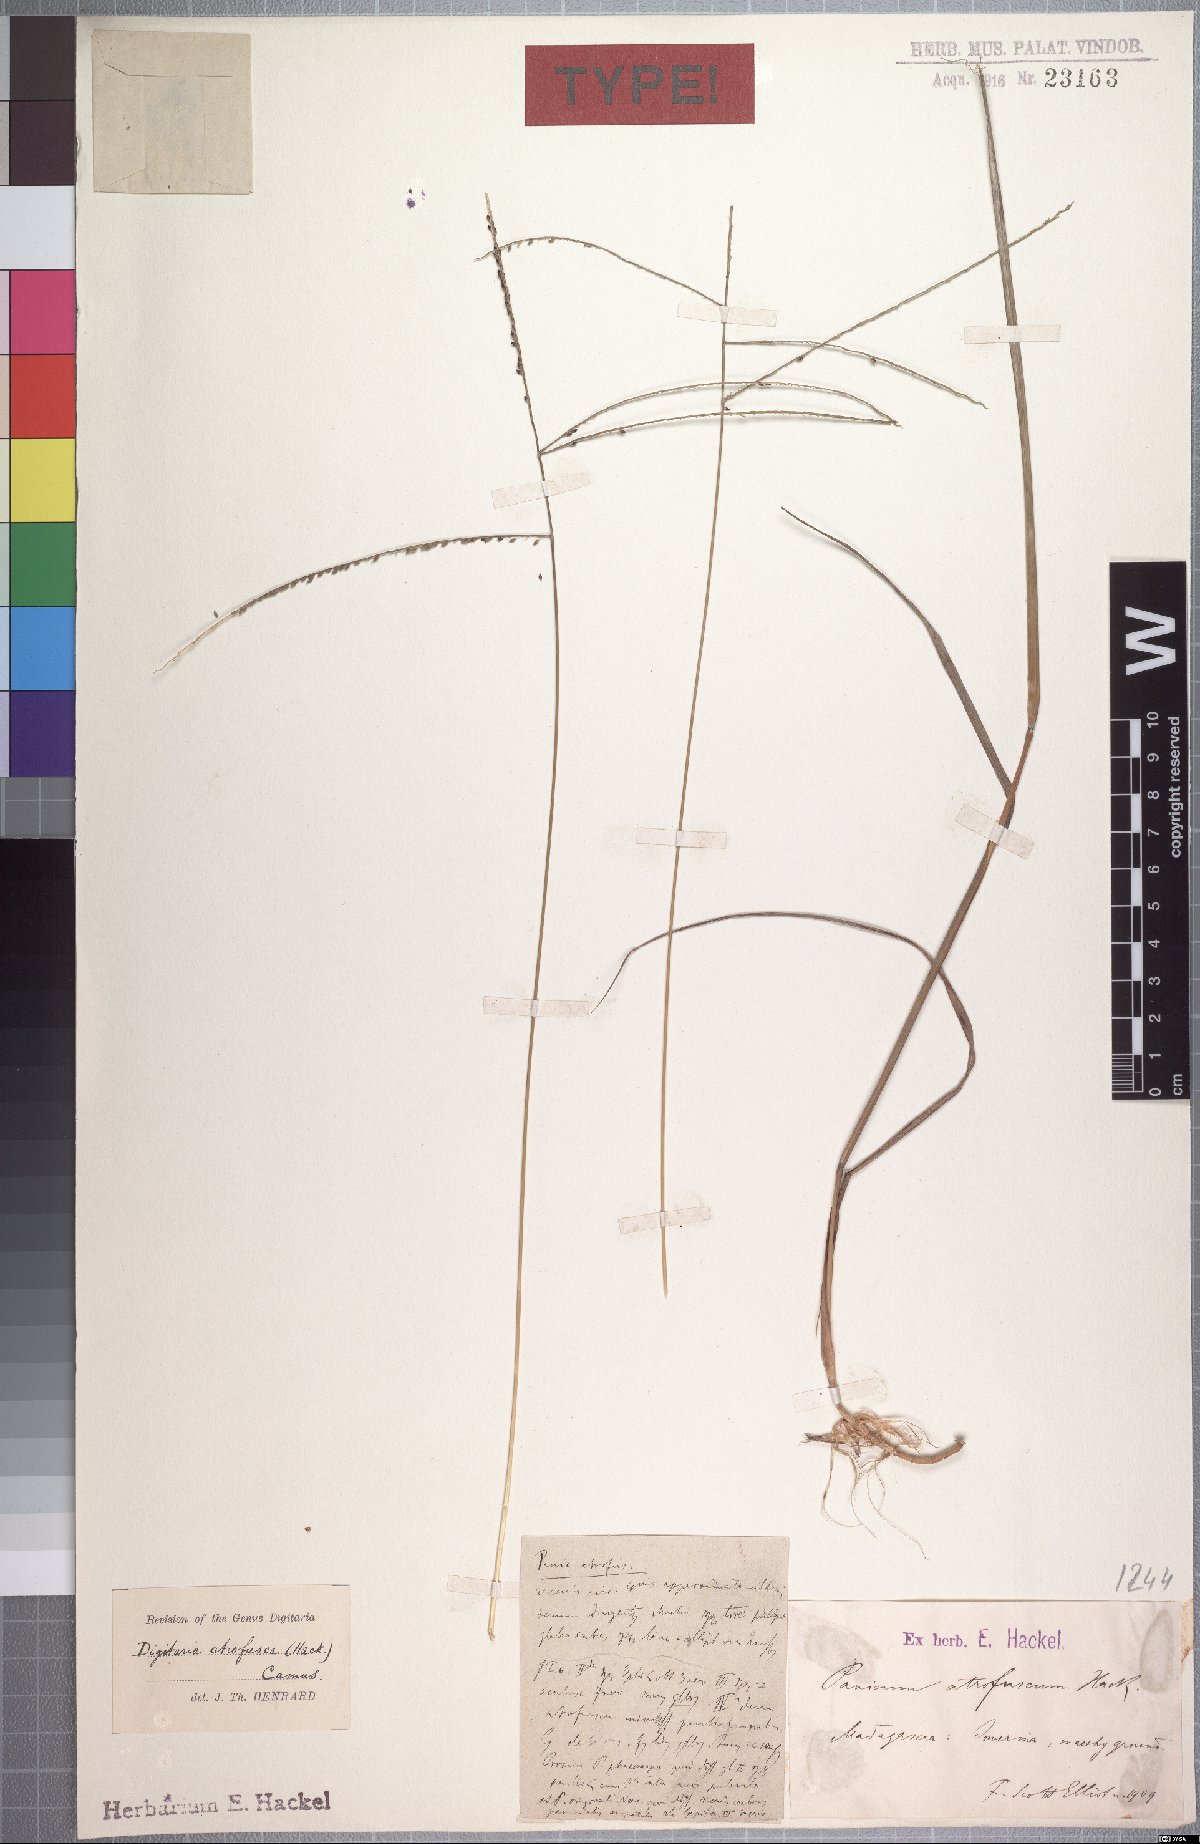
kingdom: Plantae
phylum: Tracheophyta
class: Liliopsida
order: Poales
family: Poaceae
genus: Digitaria
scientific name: Digitaria atrofusca
